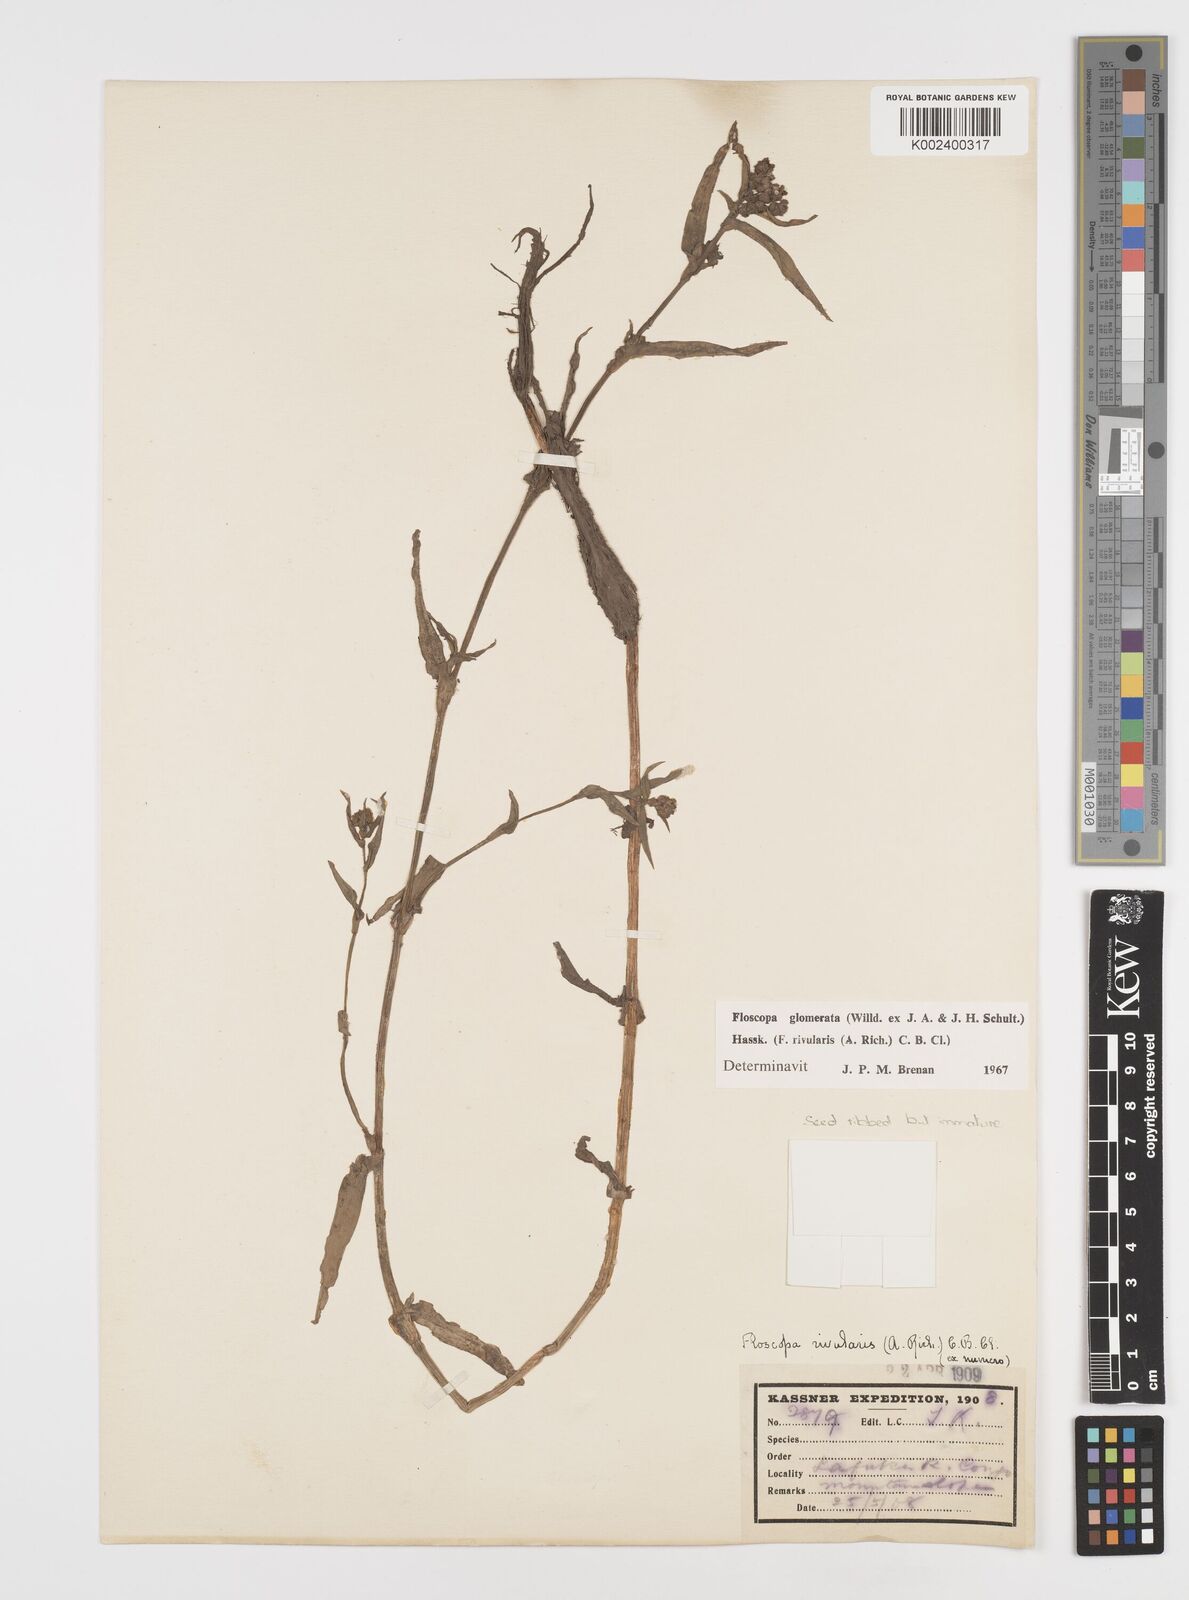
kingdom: Plantae
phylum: Tracheophyta
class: Liliopsida
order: Commelinales
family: Commelinaceae
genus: Floscopa
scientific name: Floscopa glomerata
